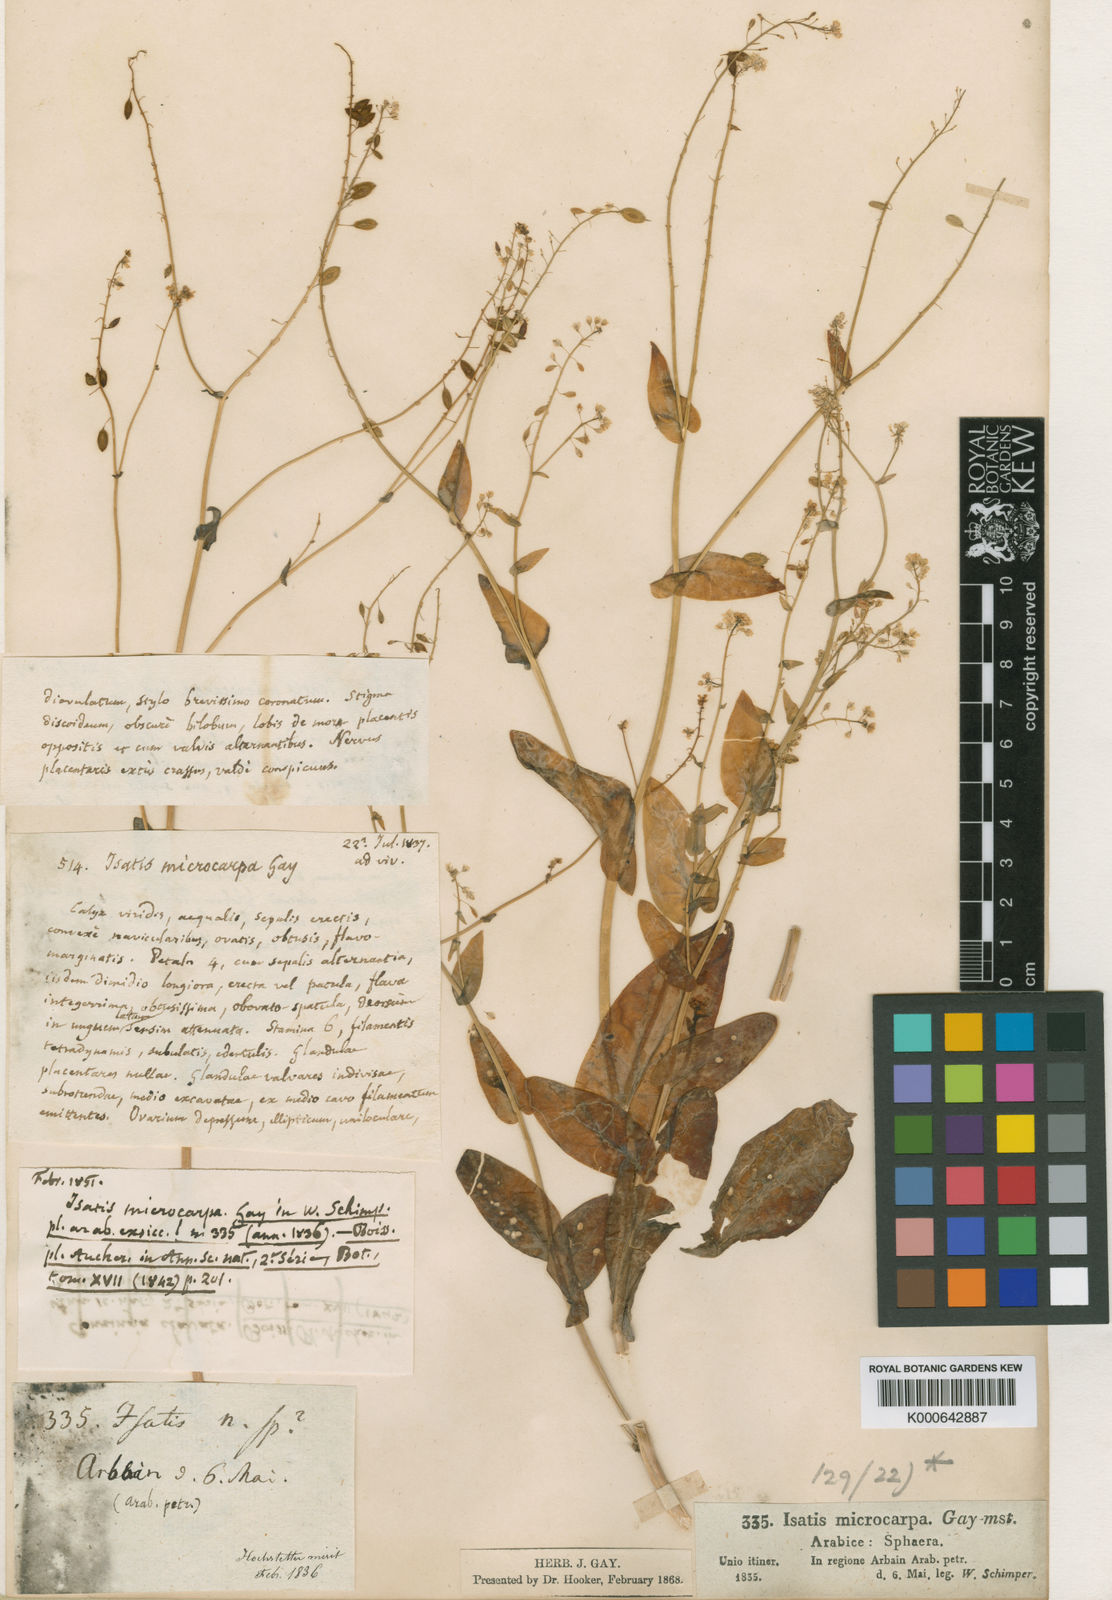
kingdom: Plantae
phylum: Tracheophyta
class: Magnoliopsida
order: Brassicales
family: Brassicaceae
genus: Isatis
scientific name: Isatis microcarpa
